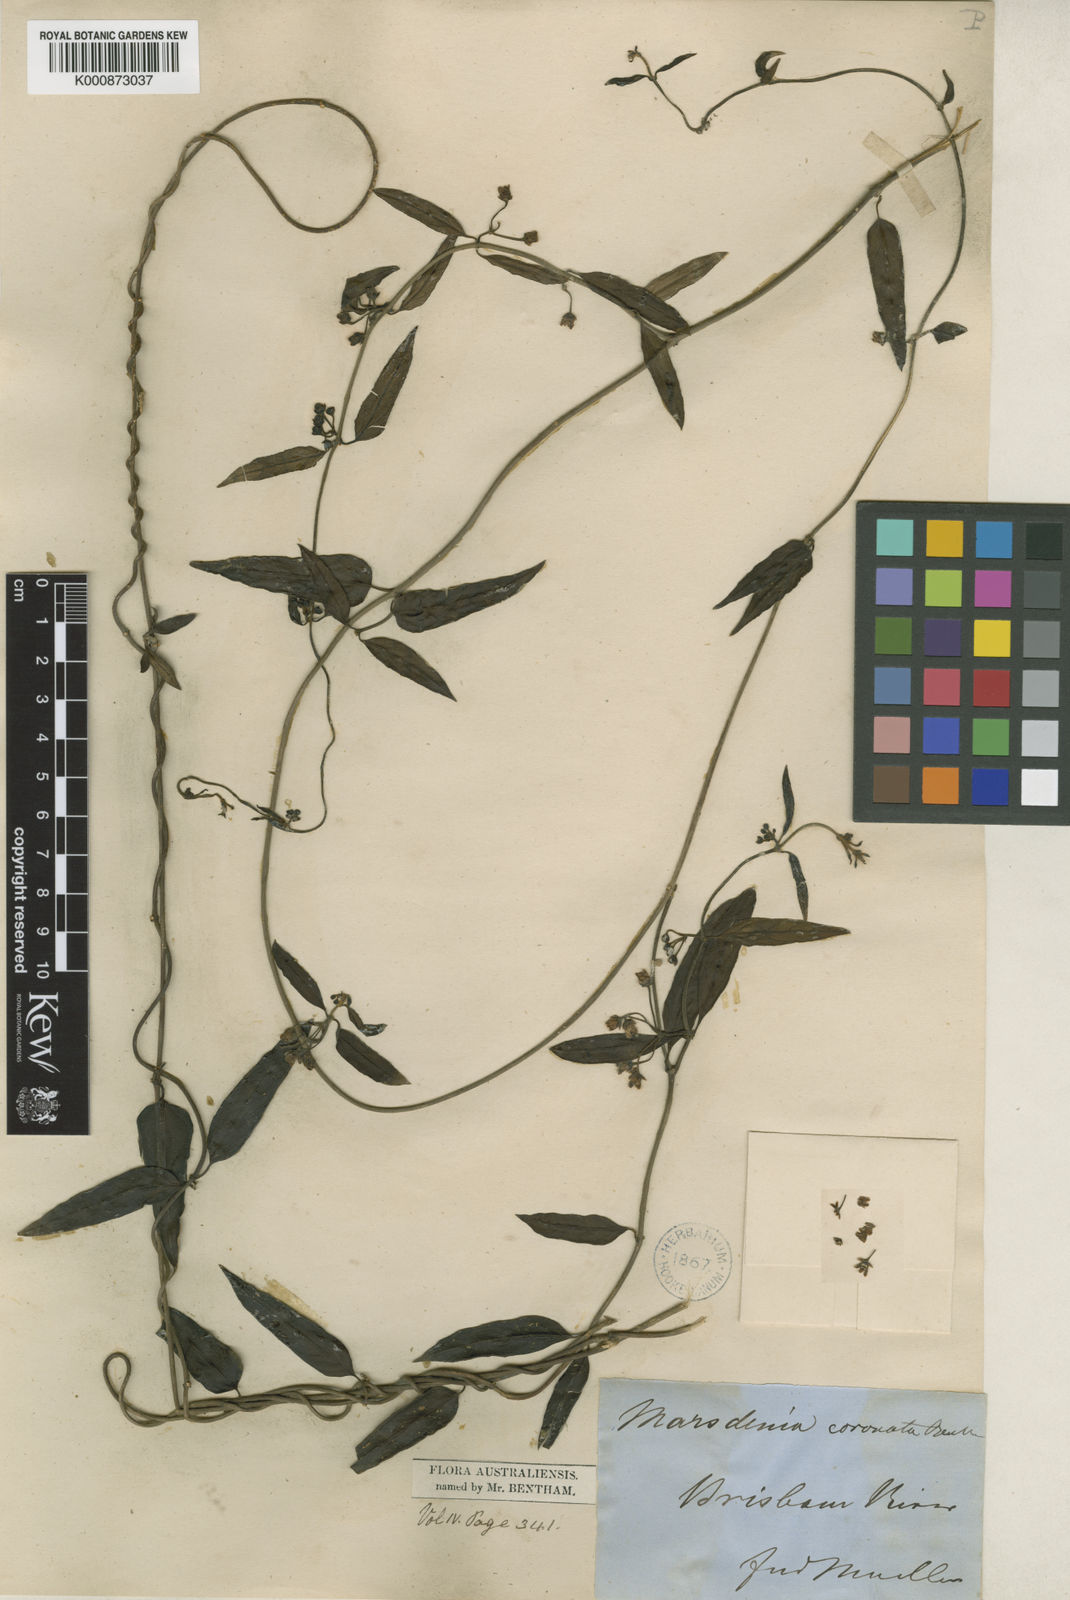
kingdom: Plantae
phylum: Tracheophyta
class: Magnoliopsida
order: Gentianales
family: Apocynaceae
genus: Leichhardtia
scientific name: Leichhardtia coronata
